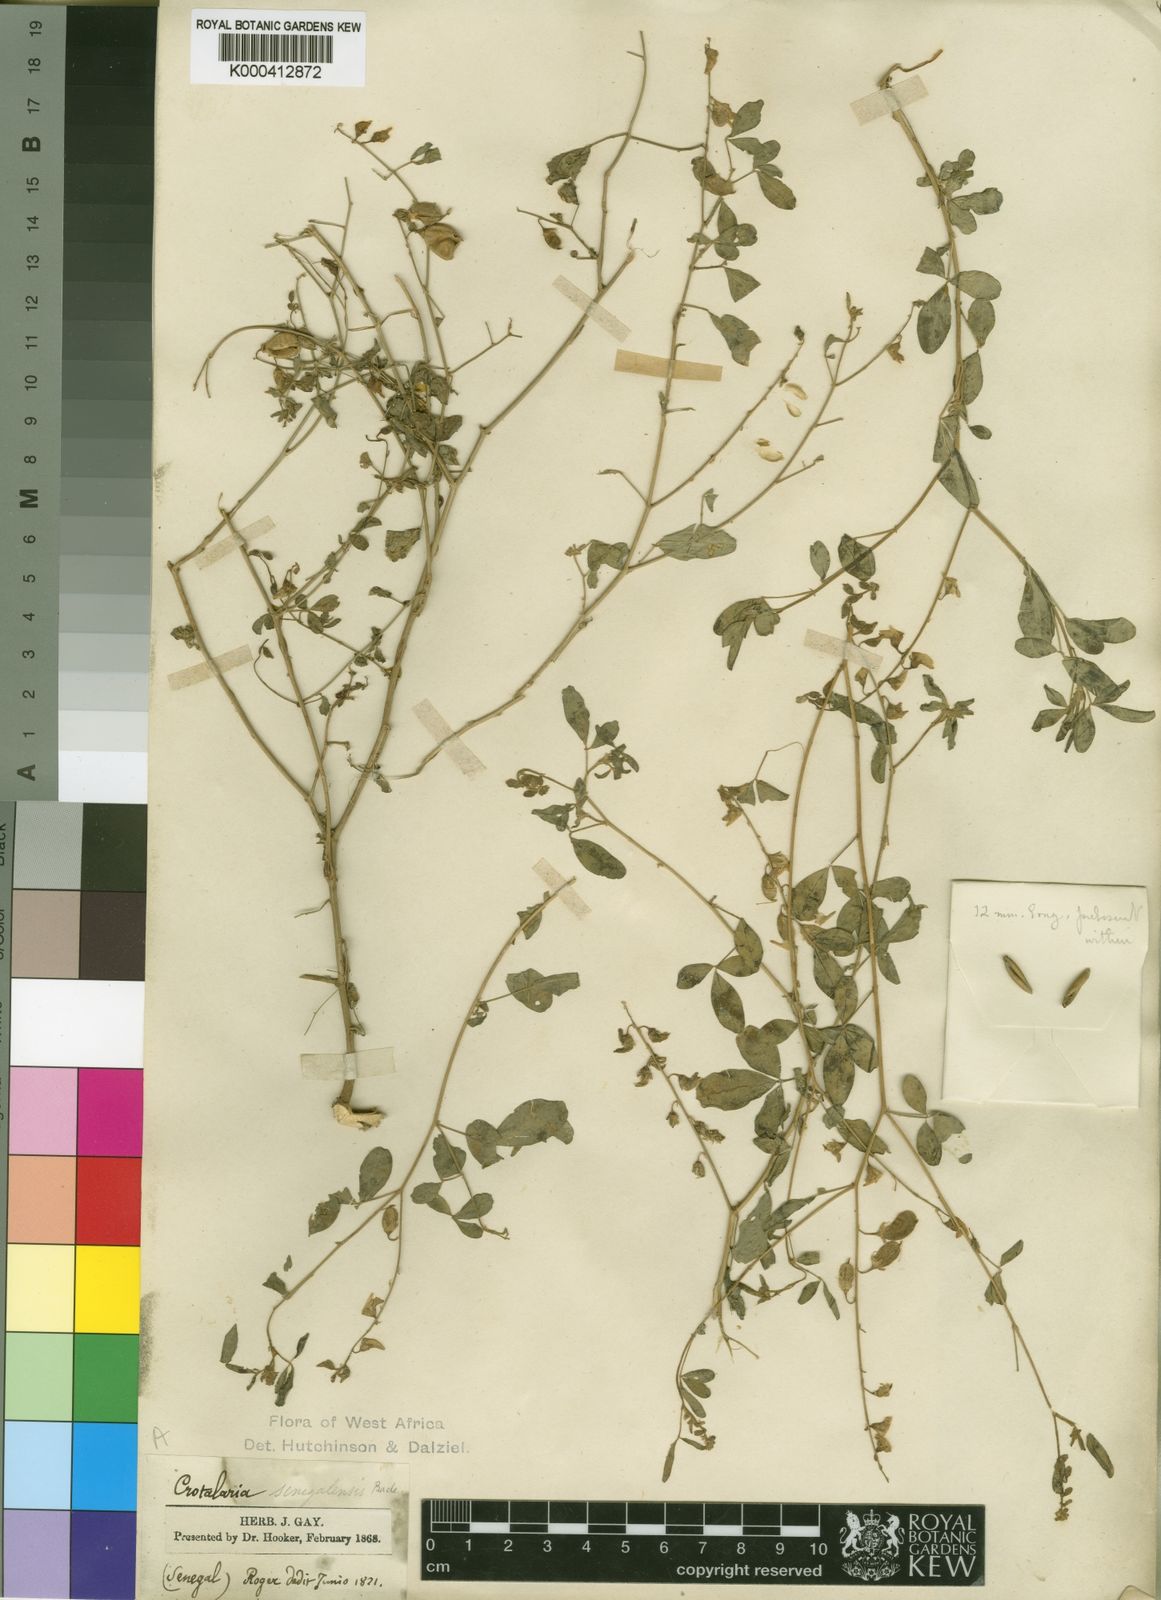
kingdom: Plantae
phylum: Tracheophyta
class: Magnoliopsida
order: Fabales
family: Fabaceae
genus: Crotalaria
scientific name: Crotalaria senegalensis
